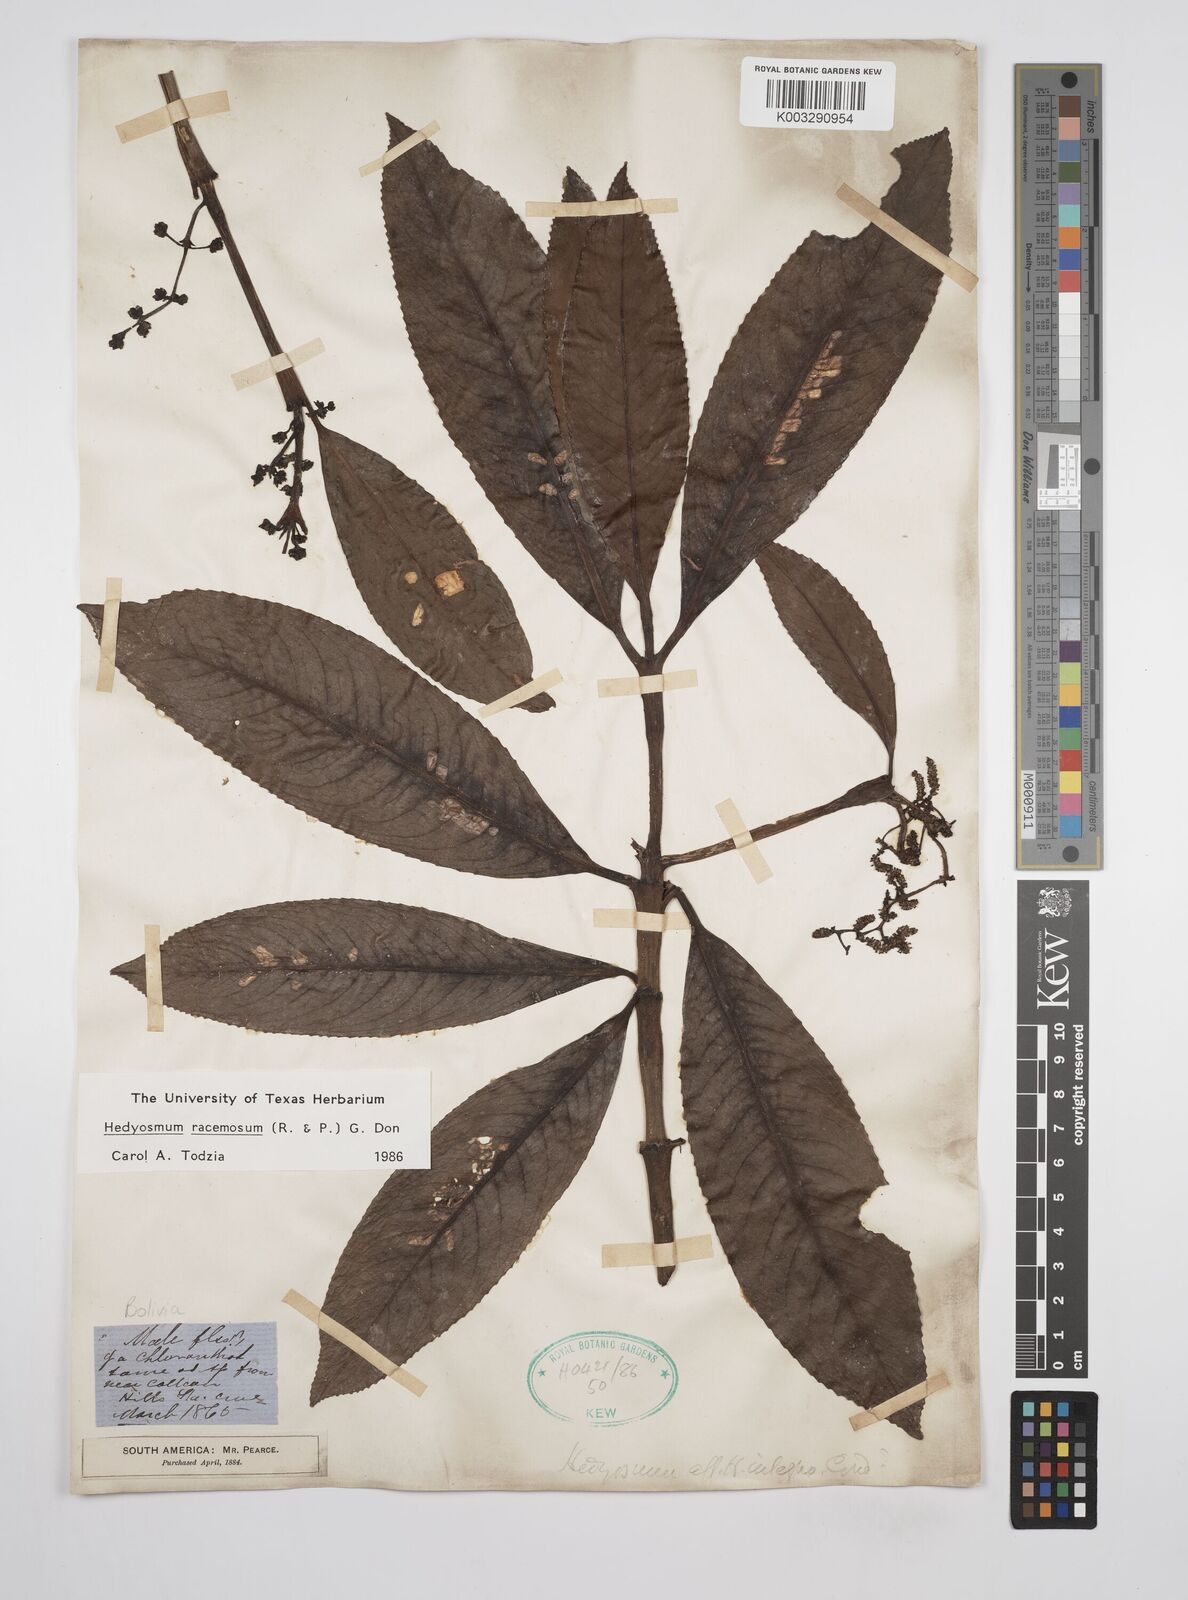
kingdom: Plantae
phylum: Tracheophyta
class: Magnoliopsida
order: Chloranthales
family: Chloranthaceae
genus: Hedyosmum
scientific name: Hedyosmum racemosum
